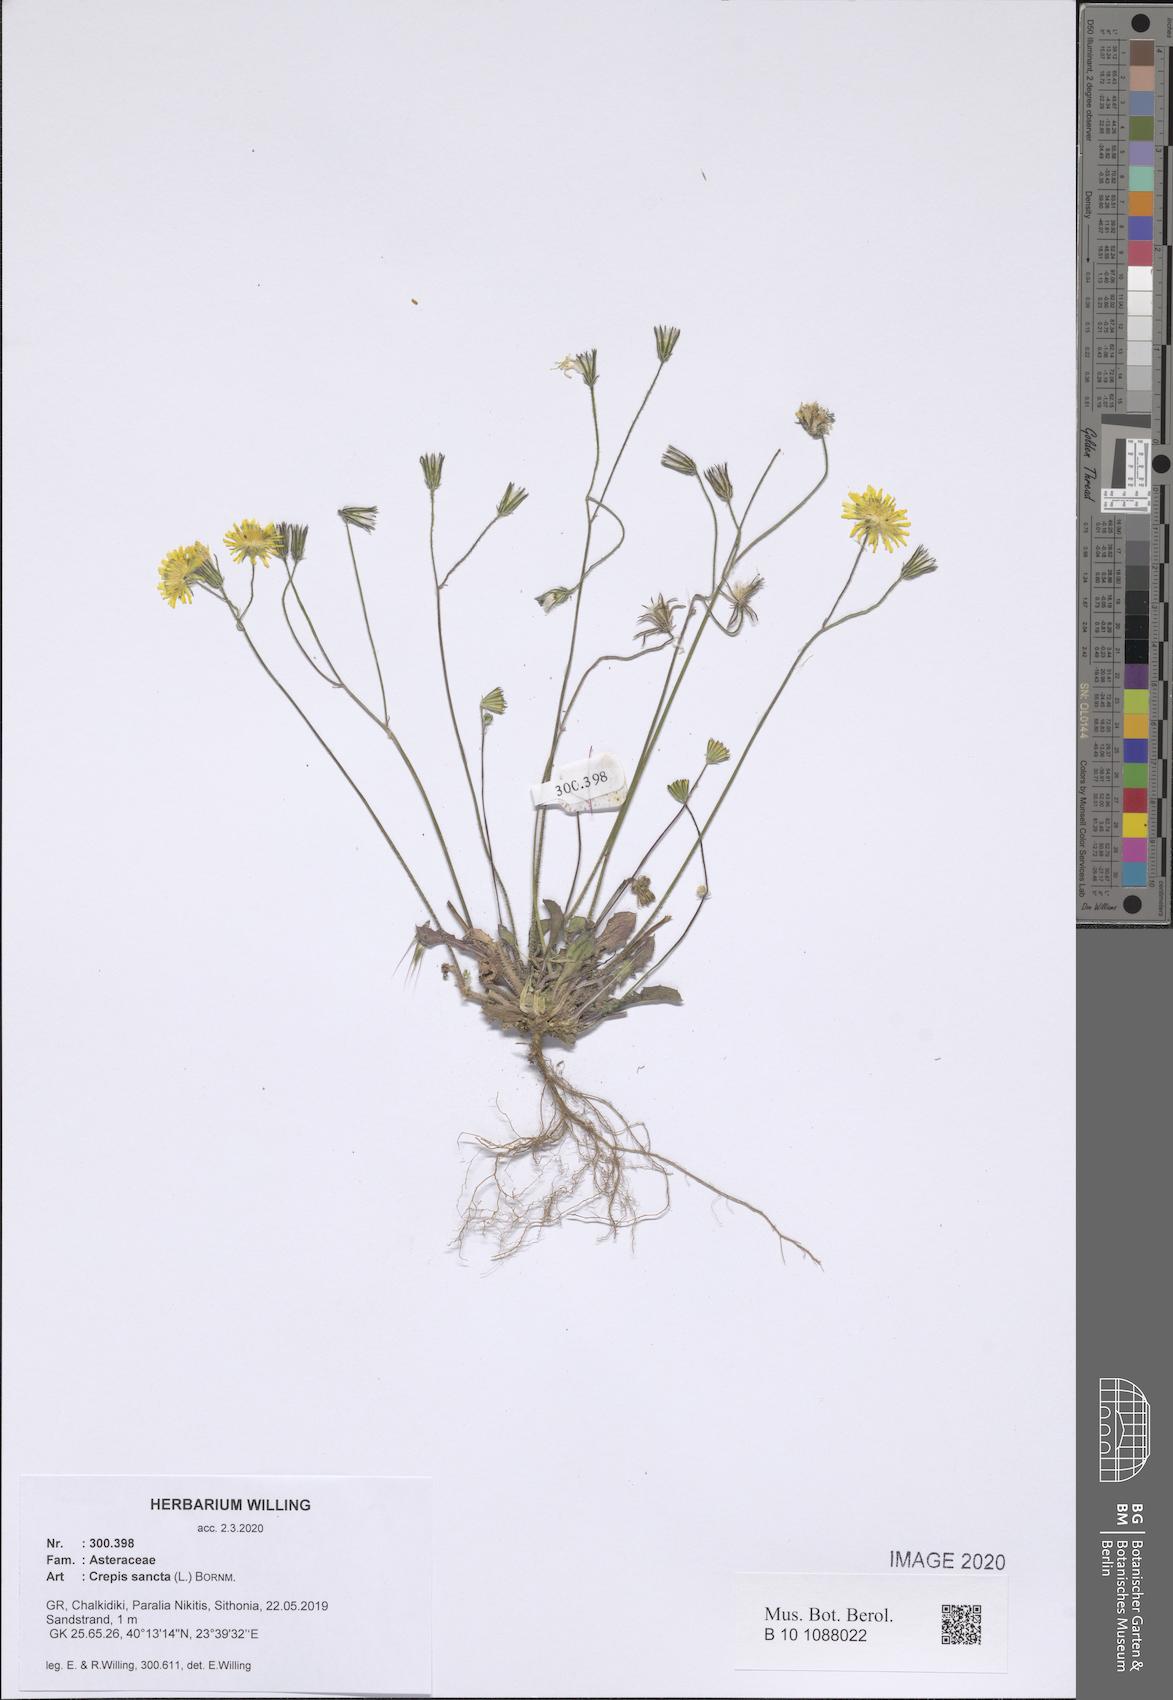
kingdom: Plantae
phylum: Tracheophyta
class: Magnoliopsida
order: Asterales
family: Asteraceae
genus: Crepis
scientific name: Crepis sancta
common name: Hawk's-beard
